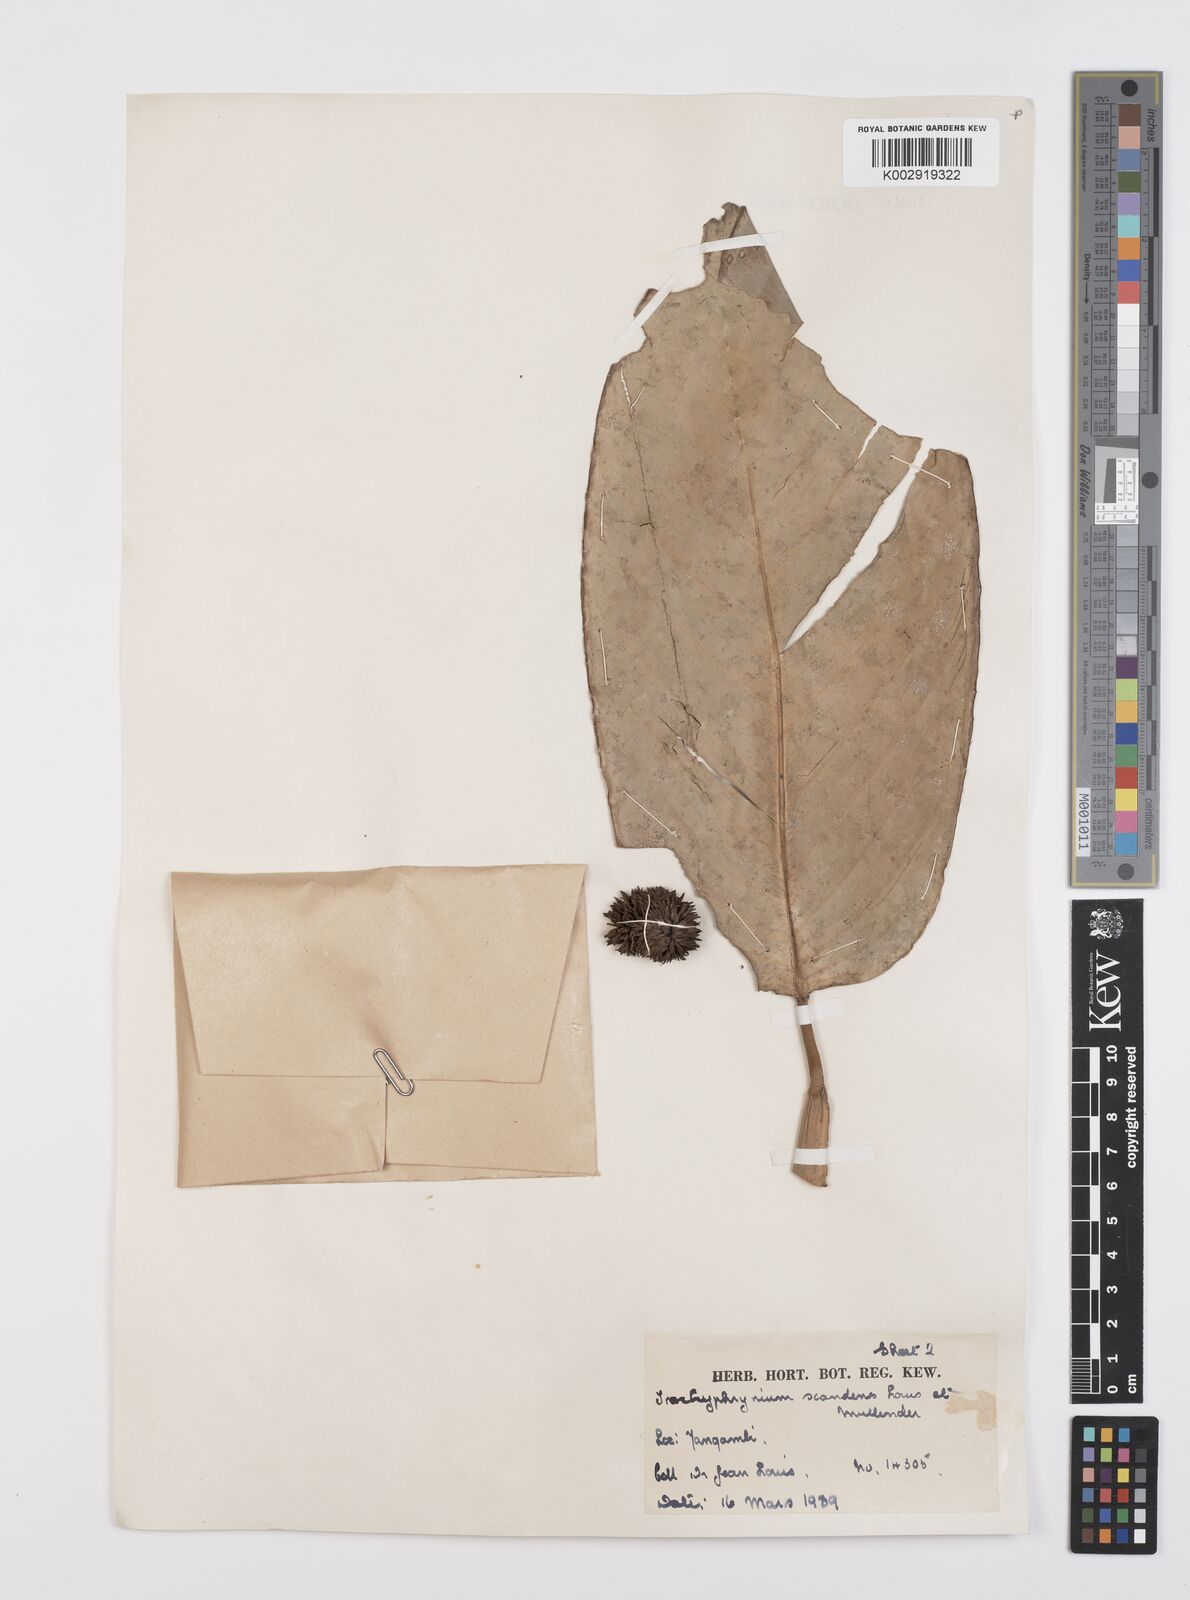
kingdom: Plantae
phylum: Tracheophyta
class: Liliopsida
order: Zingiberales
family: Marantaceae
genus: Hypselodelphys
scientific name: Hypselodelphys scandens
